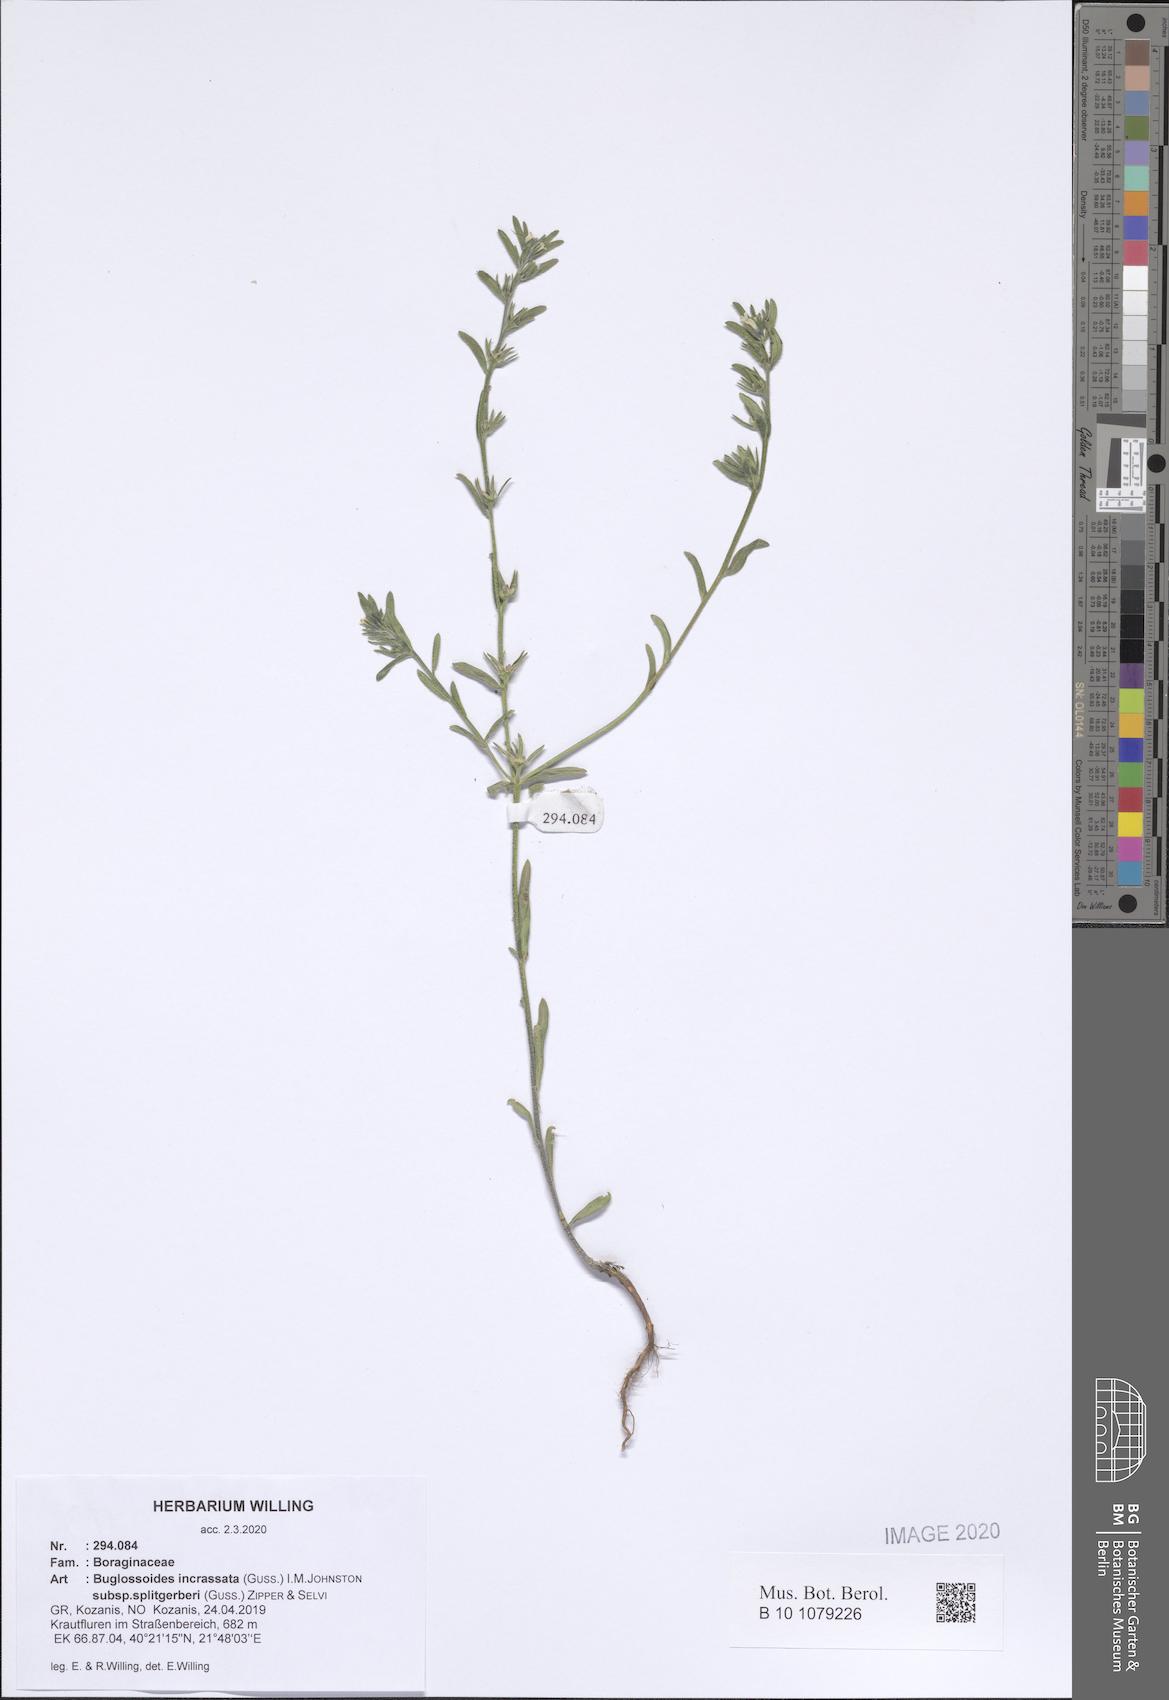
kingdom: Plantae
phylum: Tracheophyta
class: Magnoliopsida
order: Boraginales
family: Boraginaceae
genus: Buglossoides
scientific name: Buglossoides incrassata
